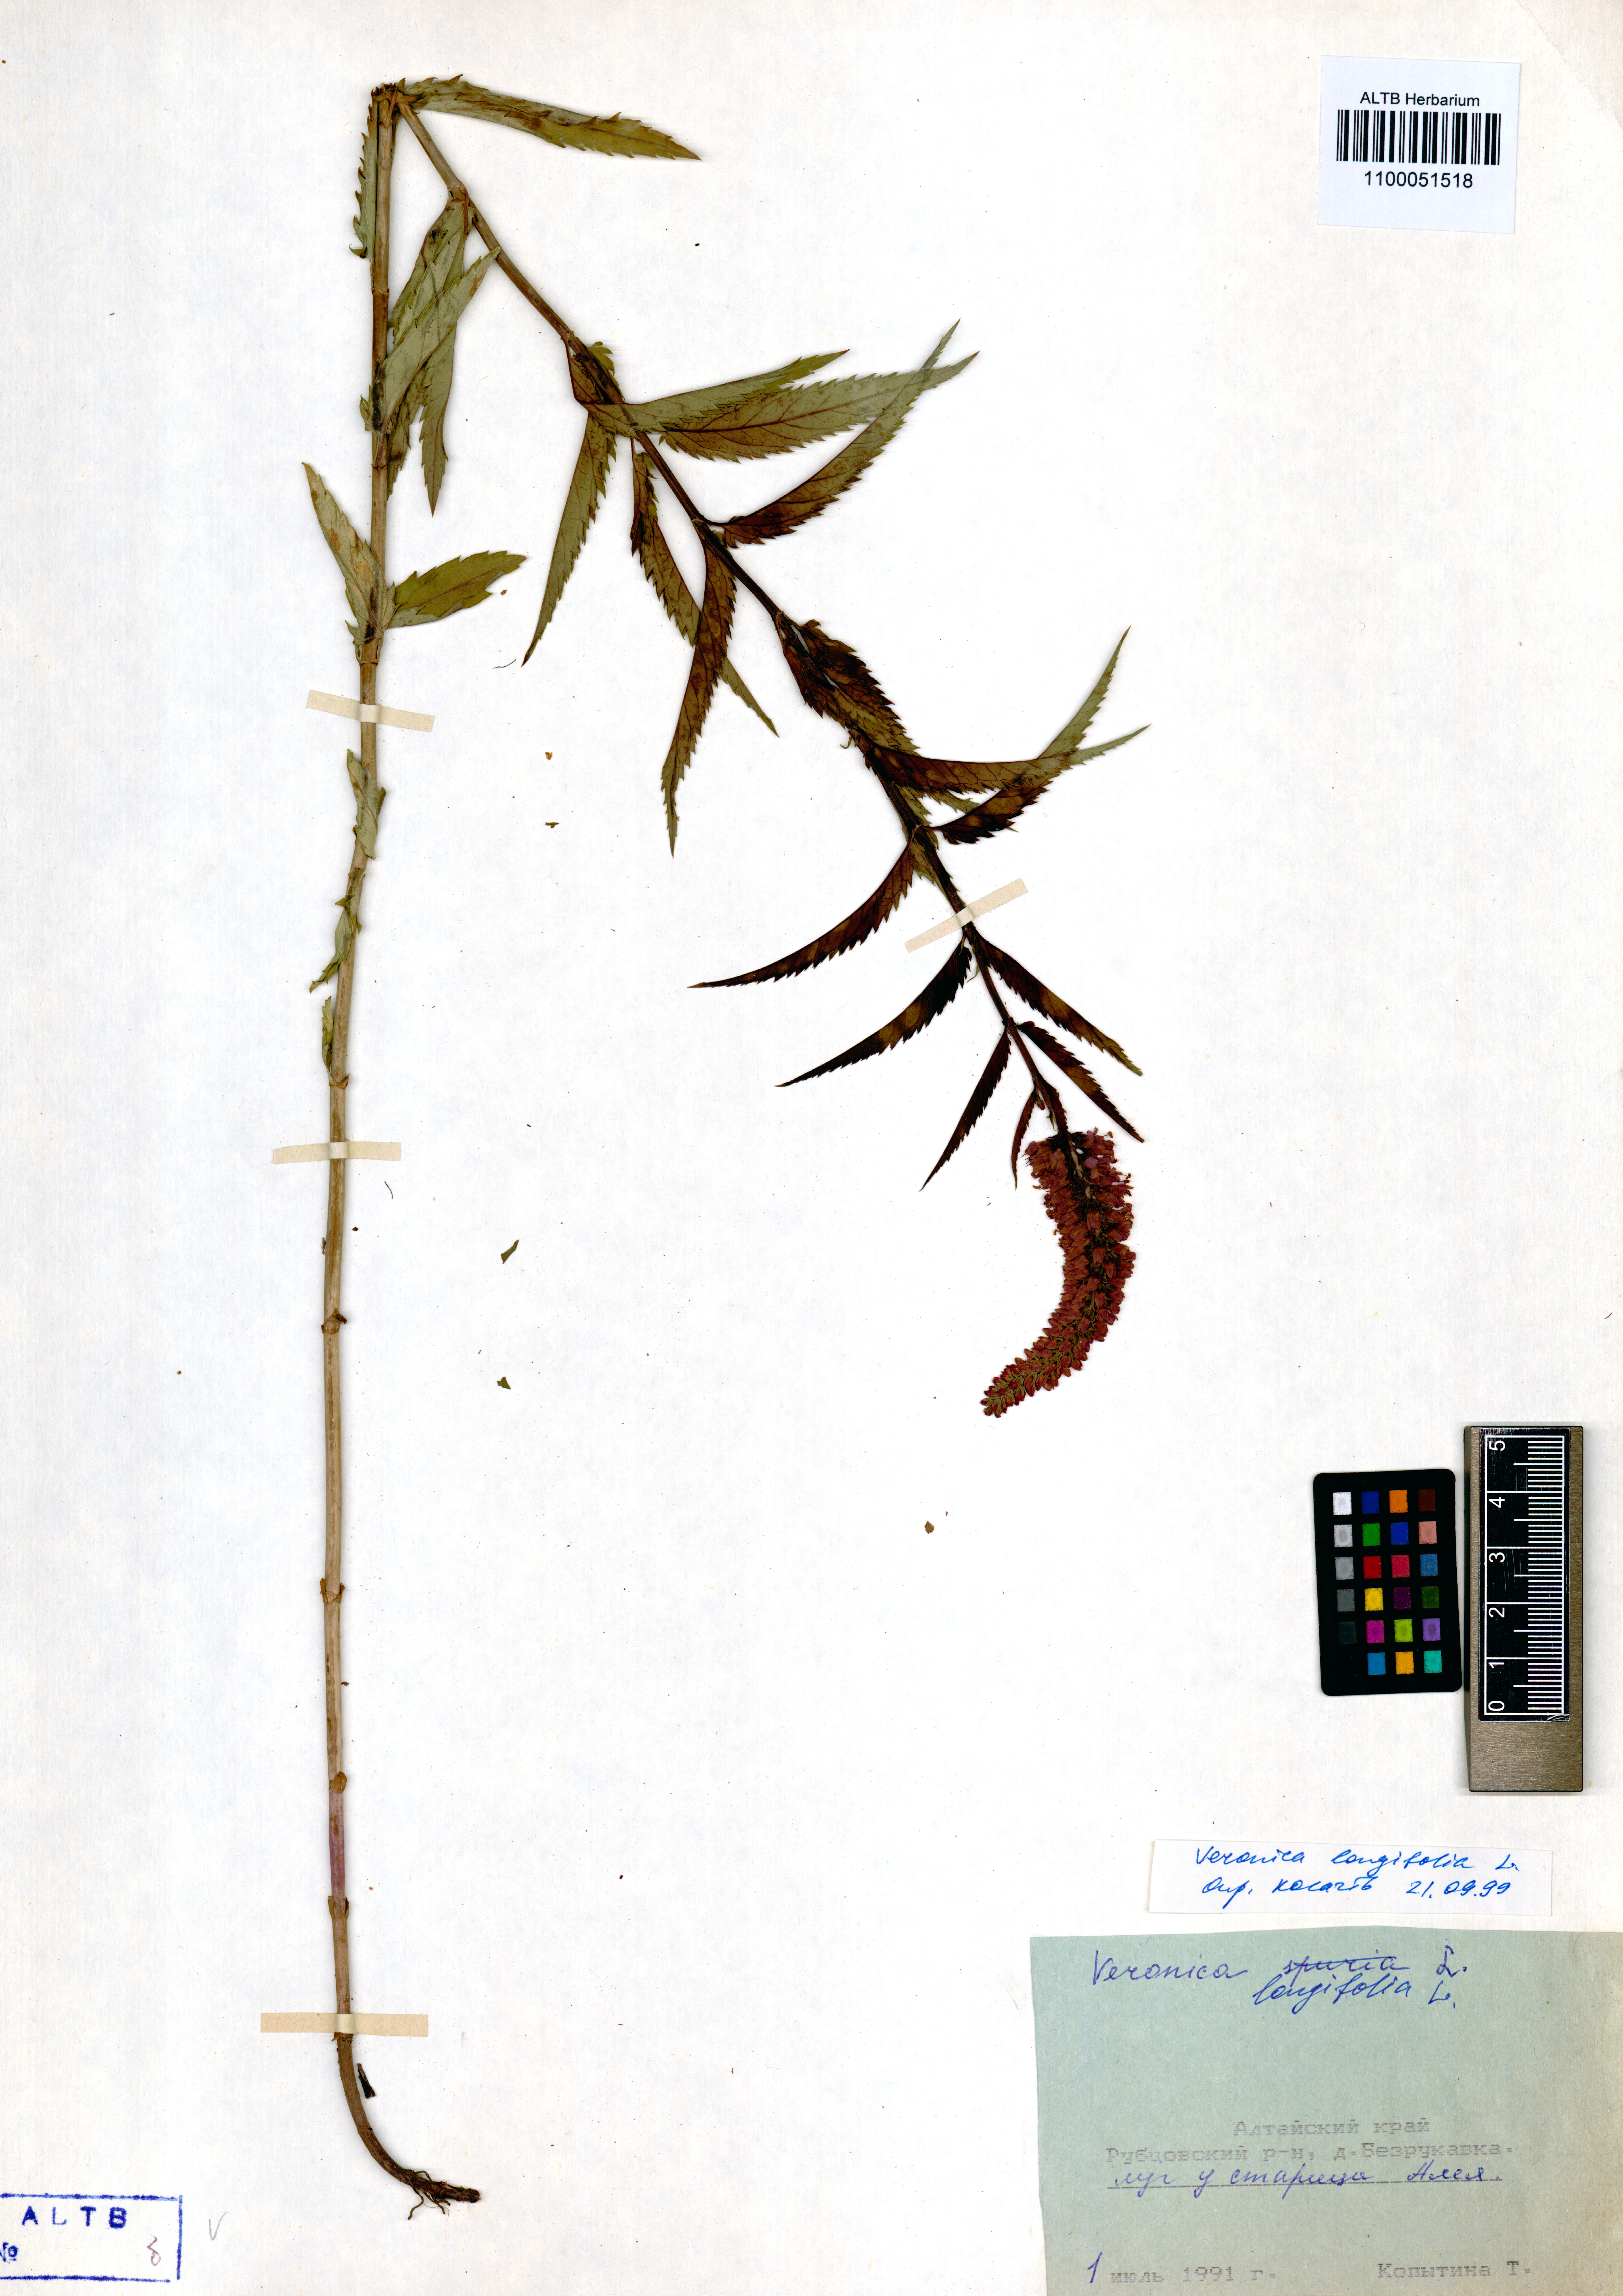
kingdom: Plantae
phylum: Tracheophyta
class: Magnoliopsida
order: Lamiales
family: Plantaginaceae
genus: Veronica
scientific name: Veronica longifolia
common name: Garden speedwell
